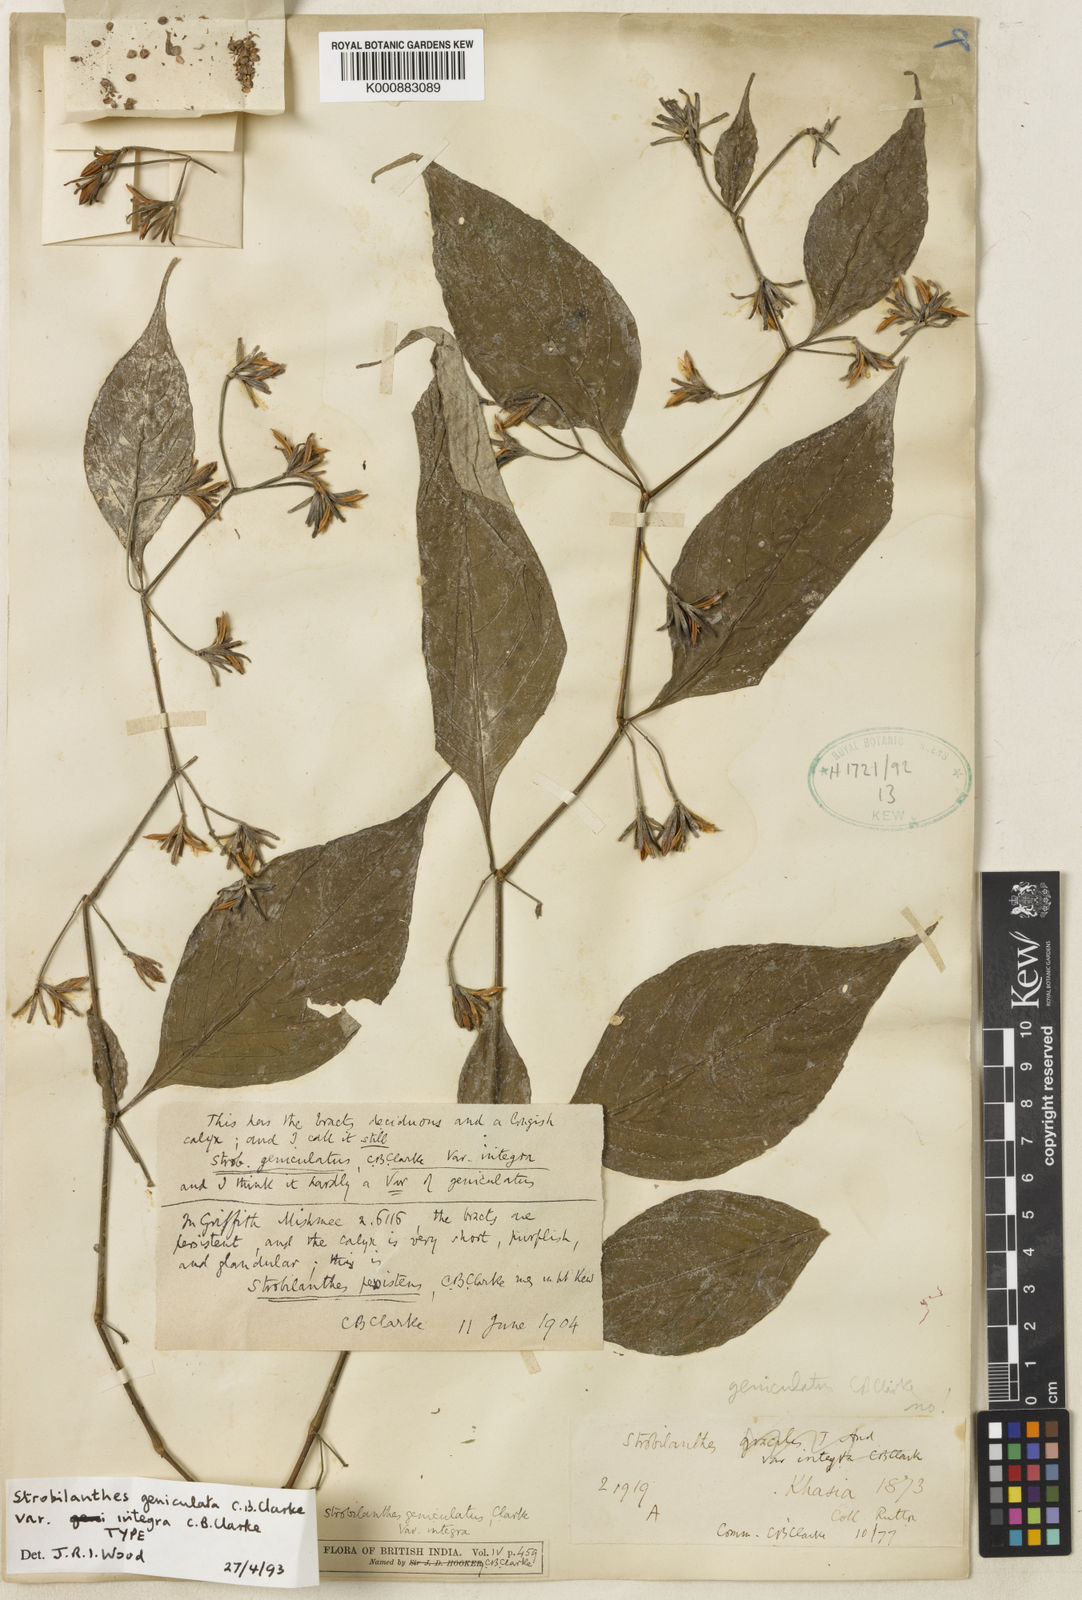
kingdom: Plantae
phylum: Tracheophyta
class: Magnoliopsida
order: Lamiales
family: Acanthaceae
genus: Strobilanthes
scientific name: Strobilanthes dimorphotricha
